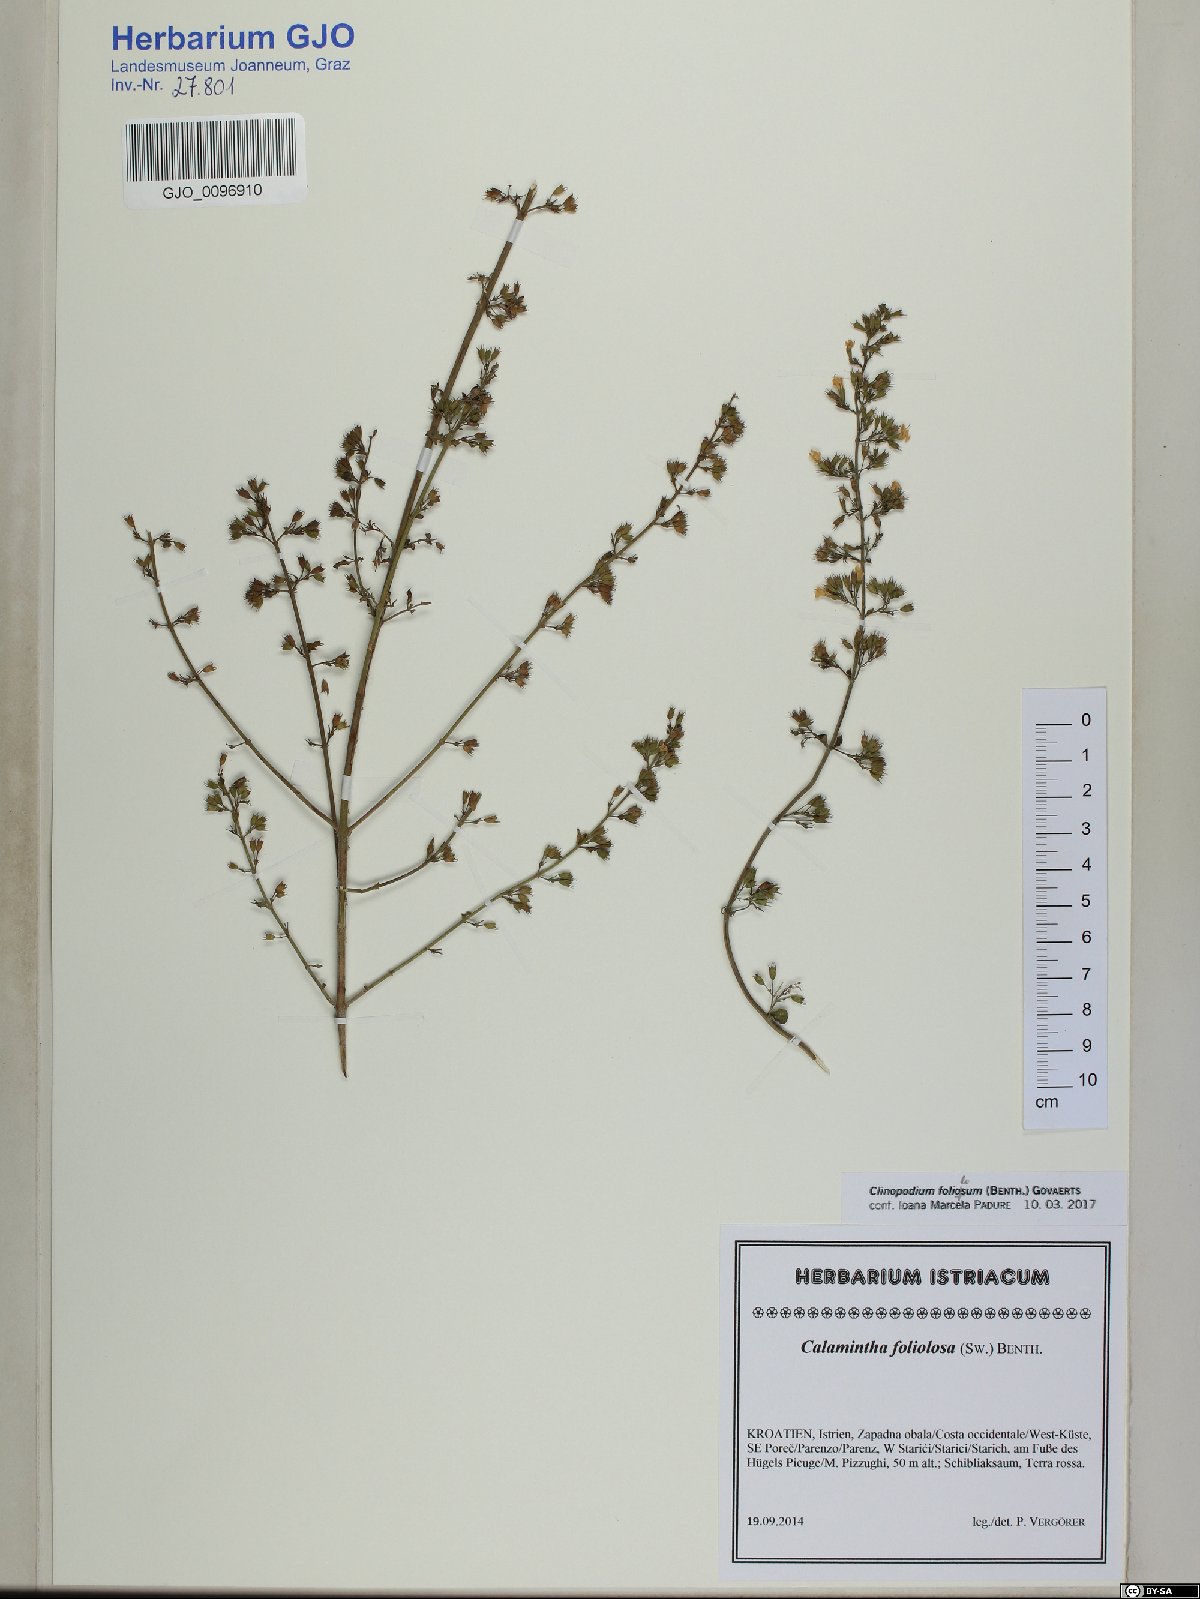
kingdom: Plantae
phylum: Tracheophyta
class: Magnoliopsida
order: Lamiales
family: Lamiaceae
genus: Clinopodium
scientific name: Clinopodium foliolosum
